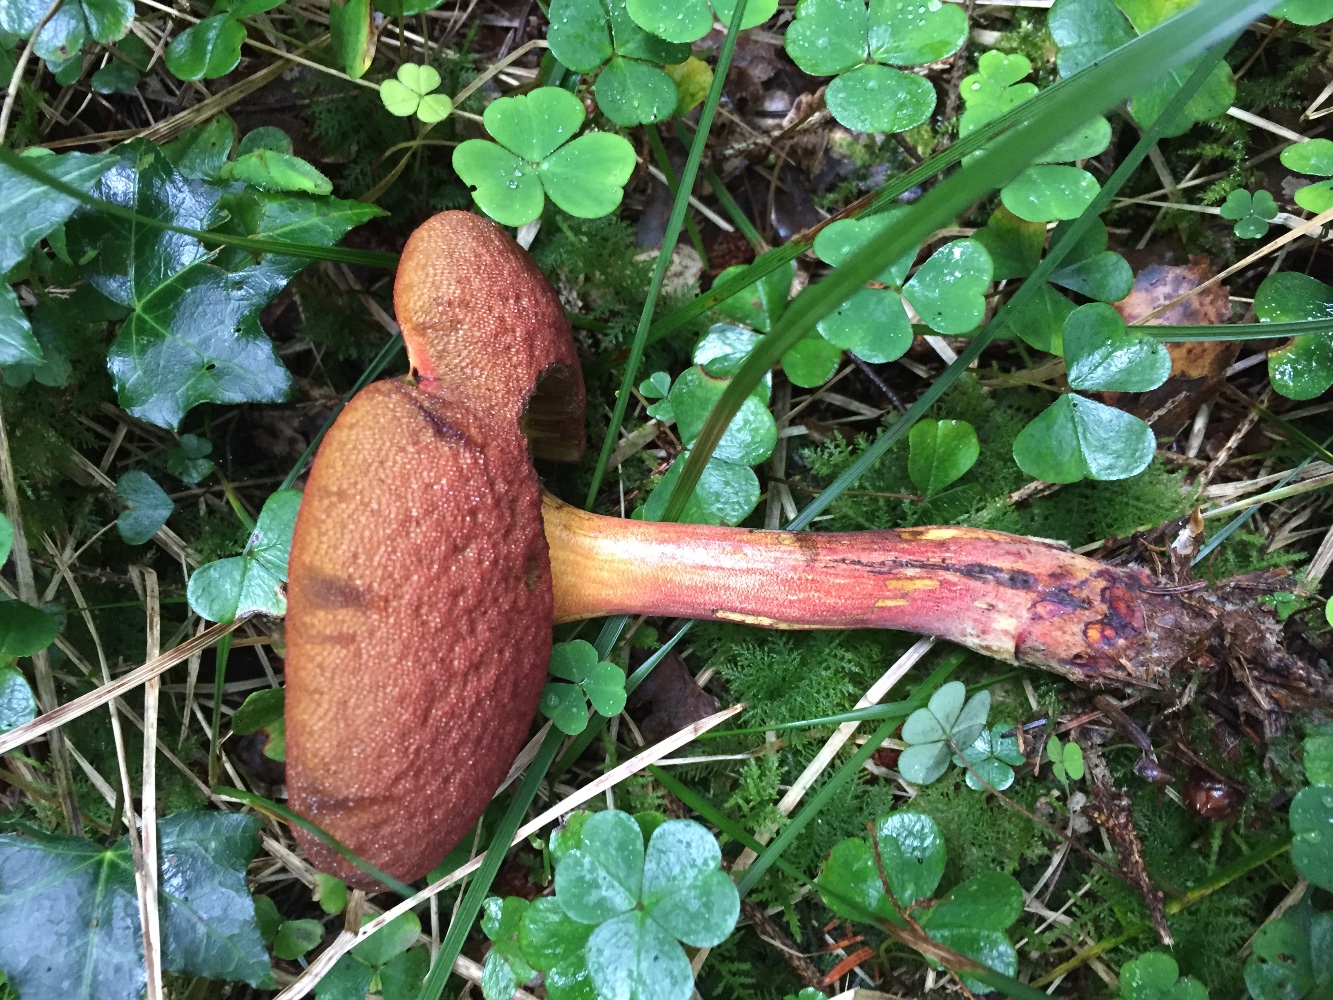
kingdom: Fungi
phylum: Basidiomycota
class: Agaricomycetes
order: Boletales
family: Boletaceae
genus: Neoboletus
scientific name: Neoboletus erythropus
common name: punktstokket indigorørhat
